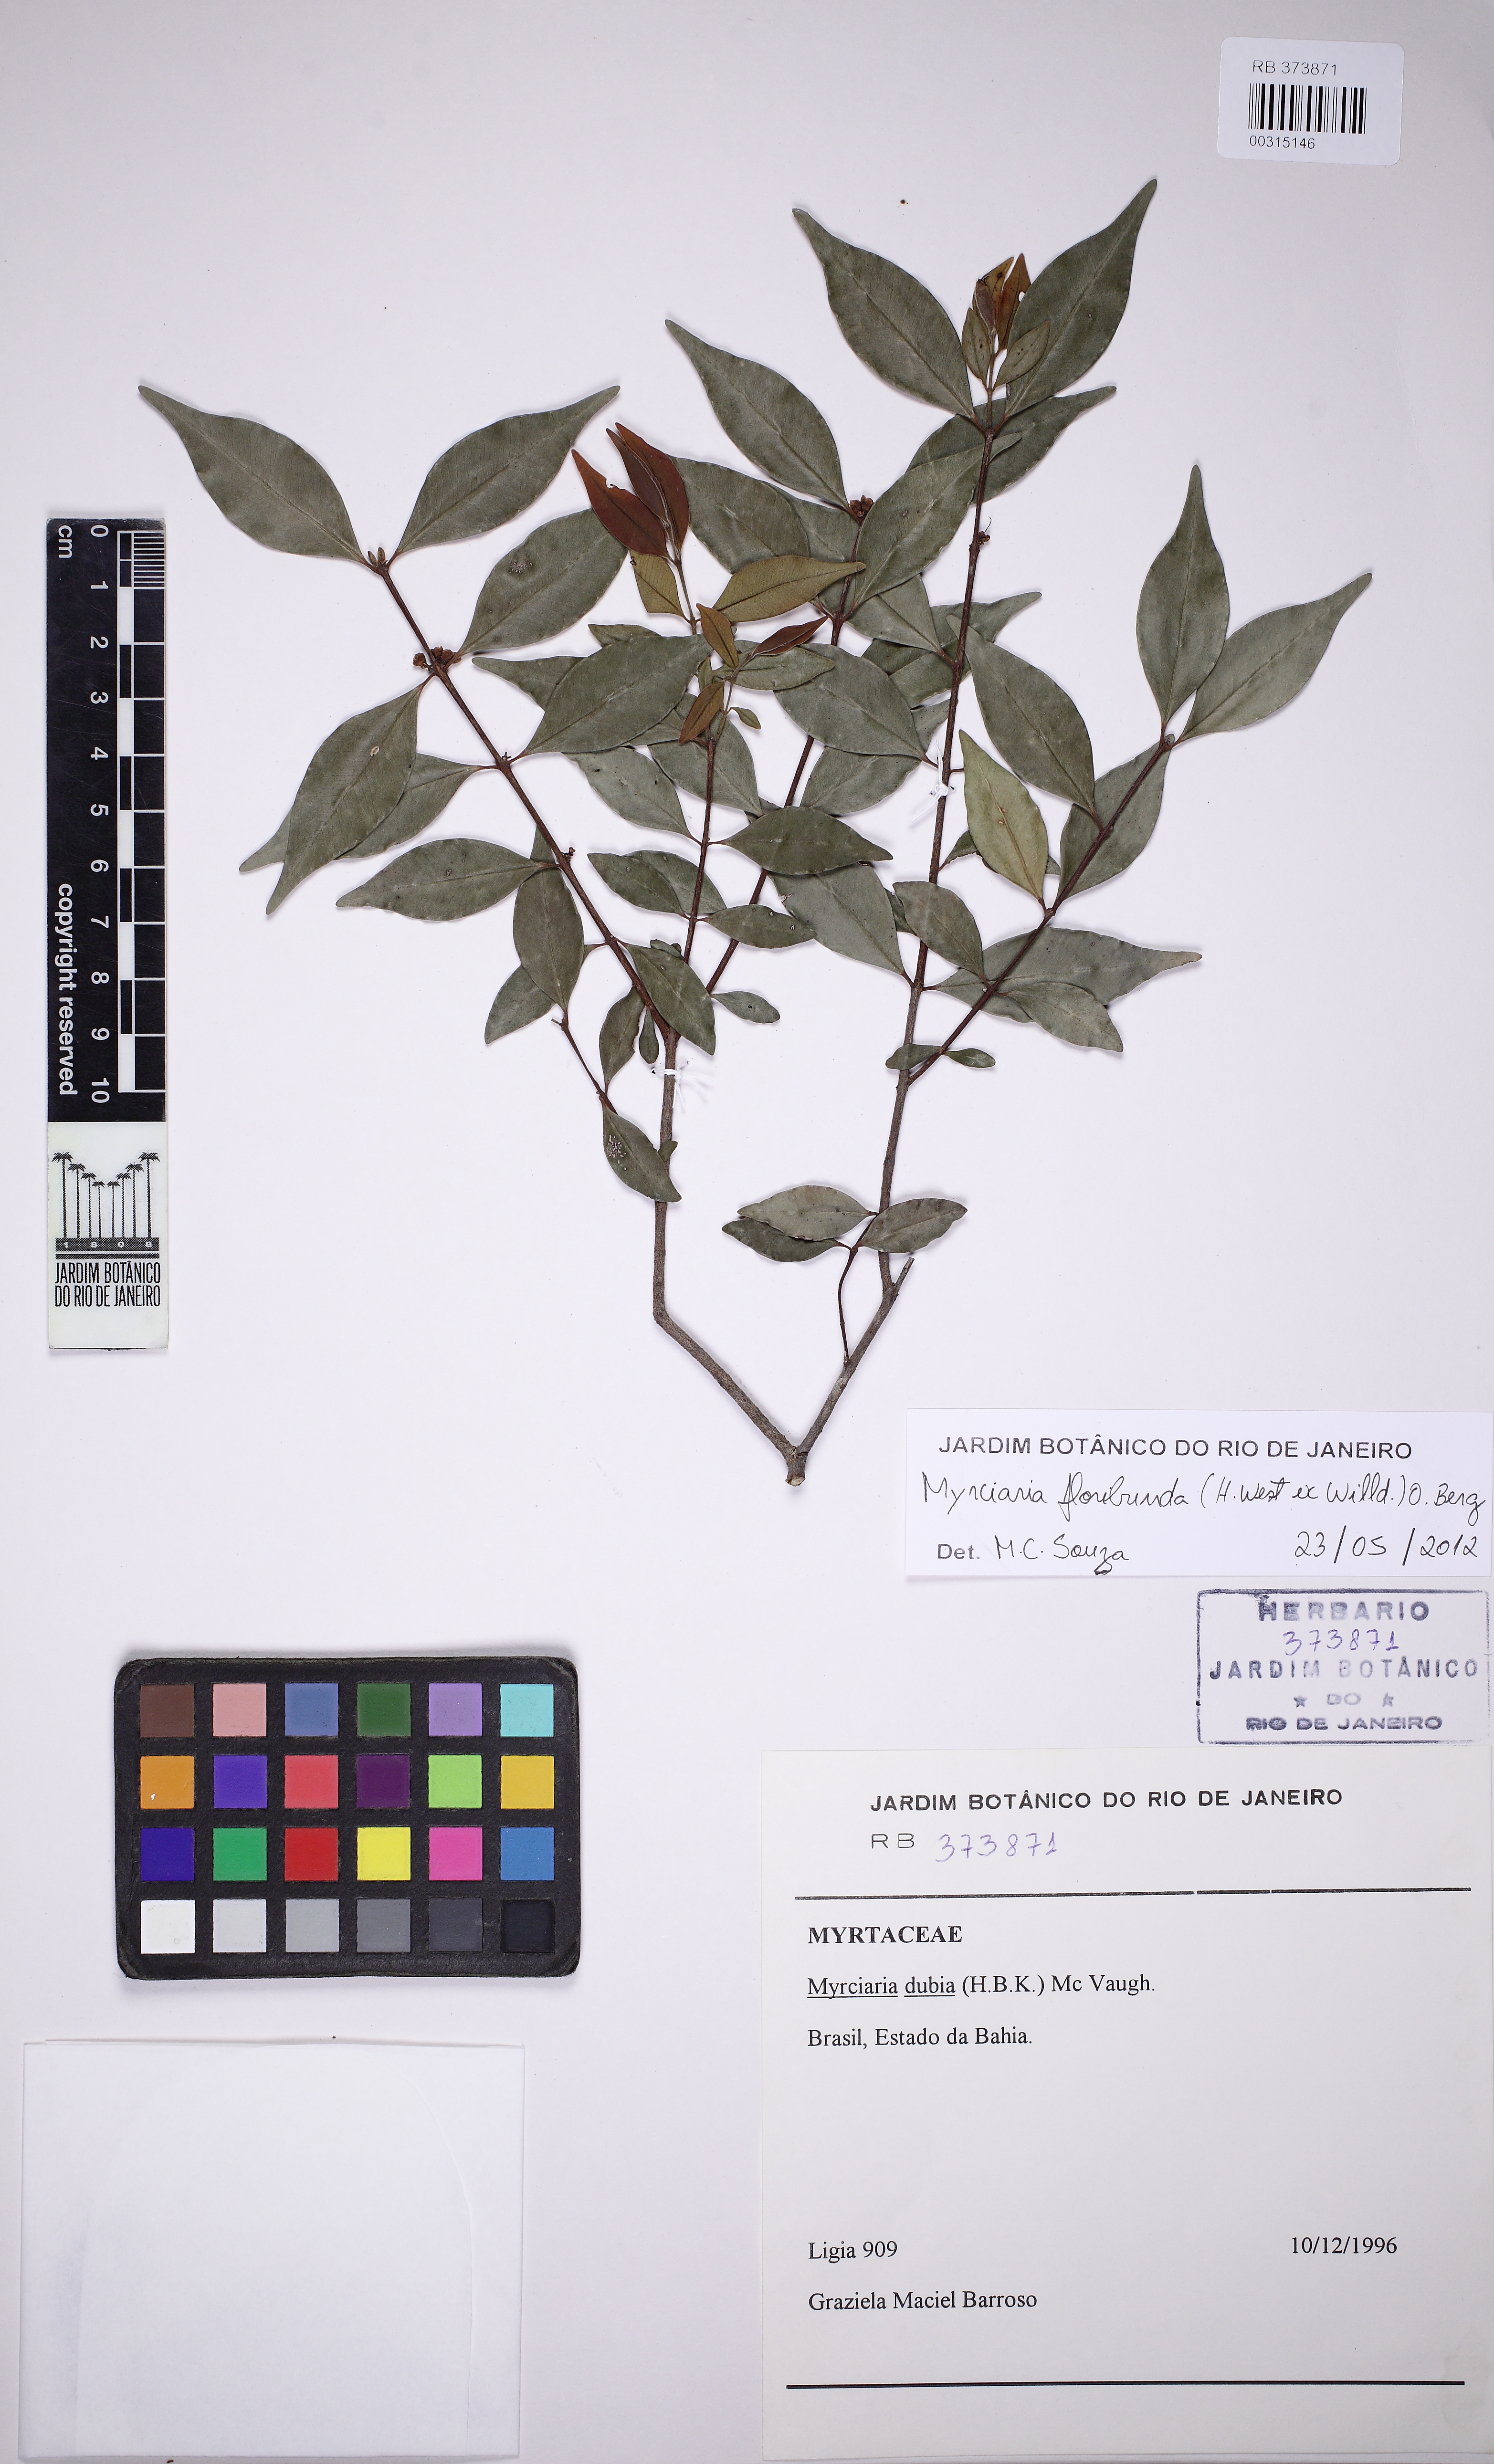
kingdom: Plantae
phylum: Tracheophyta
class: Magnoliopsida
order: Myrtales
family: Myrtaceae
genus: Myrciaria
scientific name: Myrciaria floribunda
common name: Guavaberry
